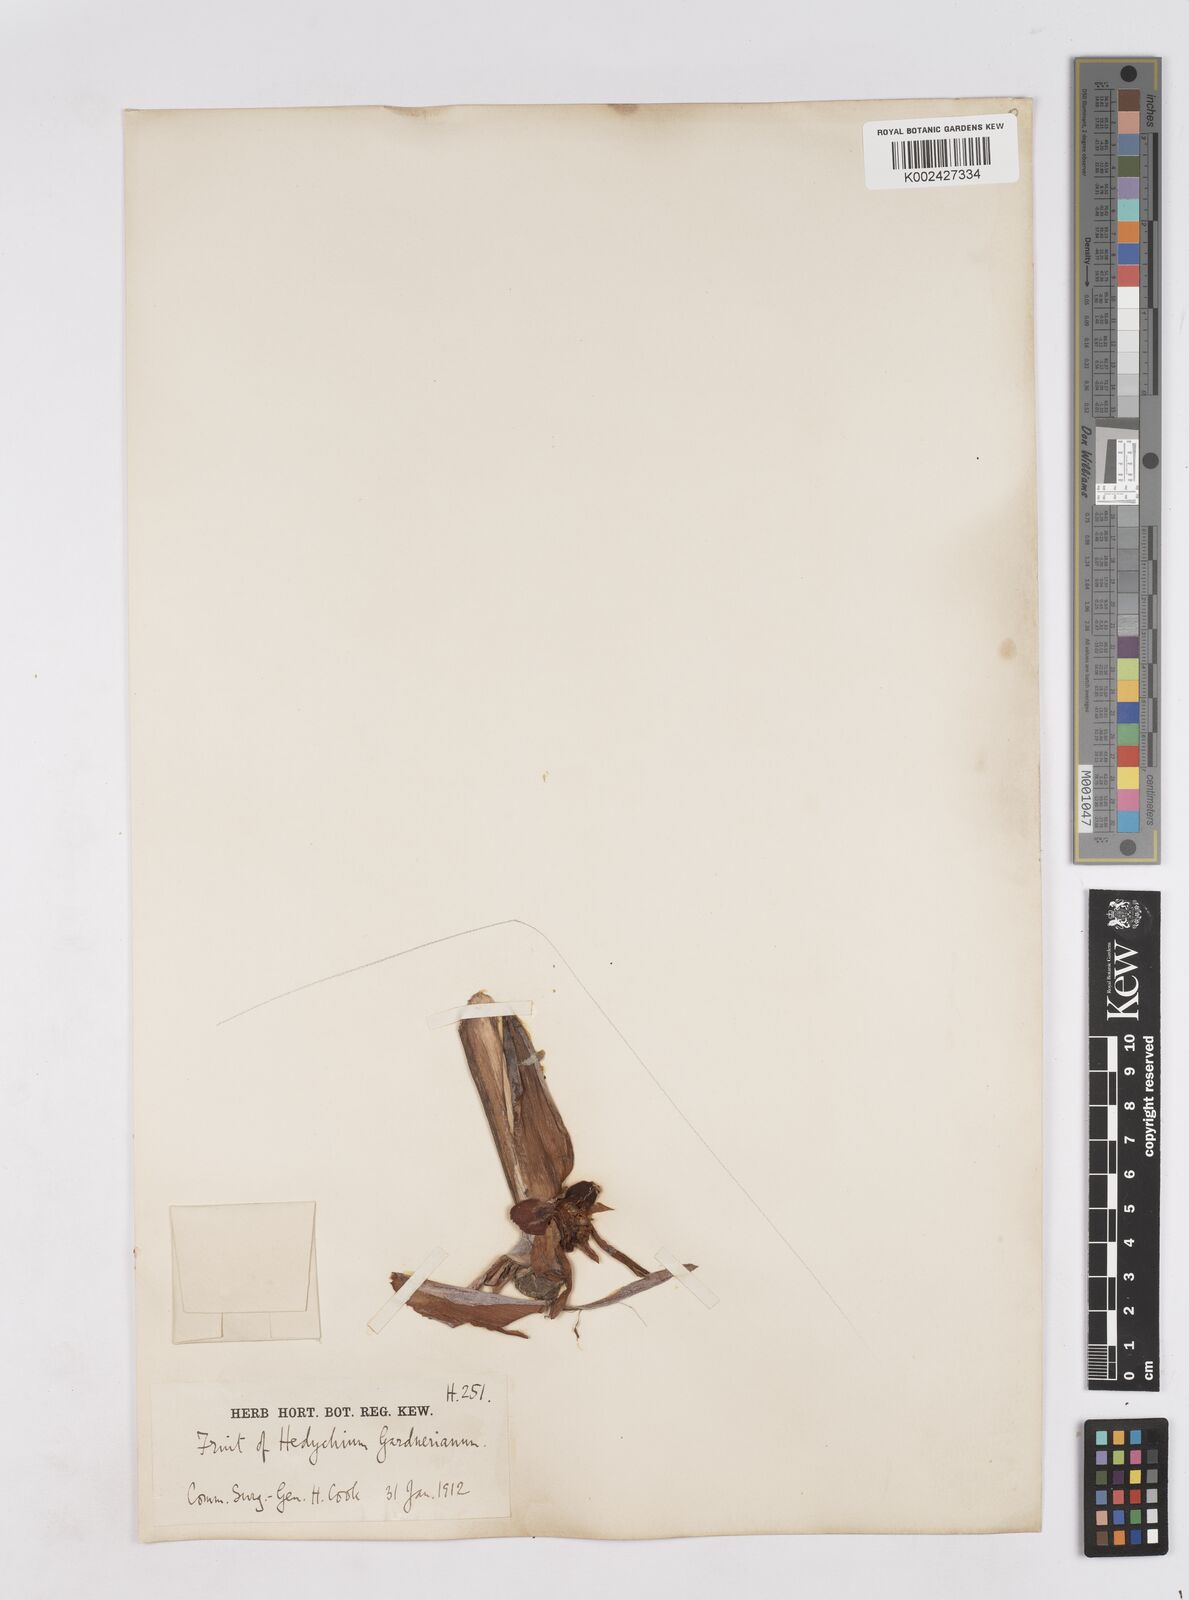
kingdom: Plantae
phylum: Tracheophyta
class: Liliopsida
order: Zingiberales
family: Zingiberaceae
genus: Hedychium
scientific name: Hedychium gardnerianum
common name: Himalayan ginger
